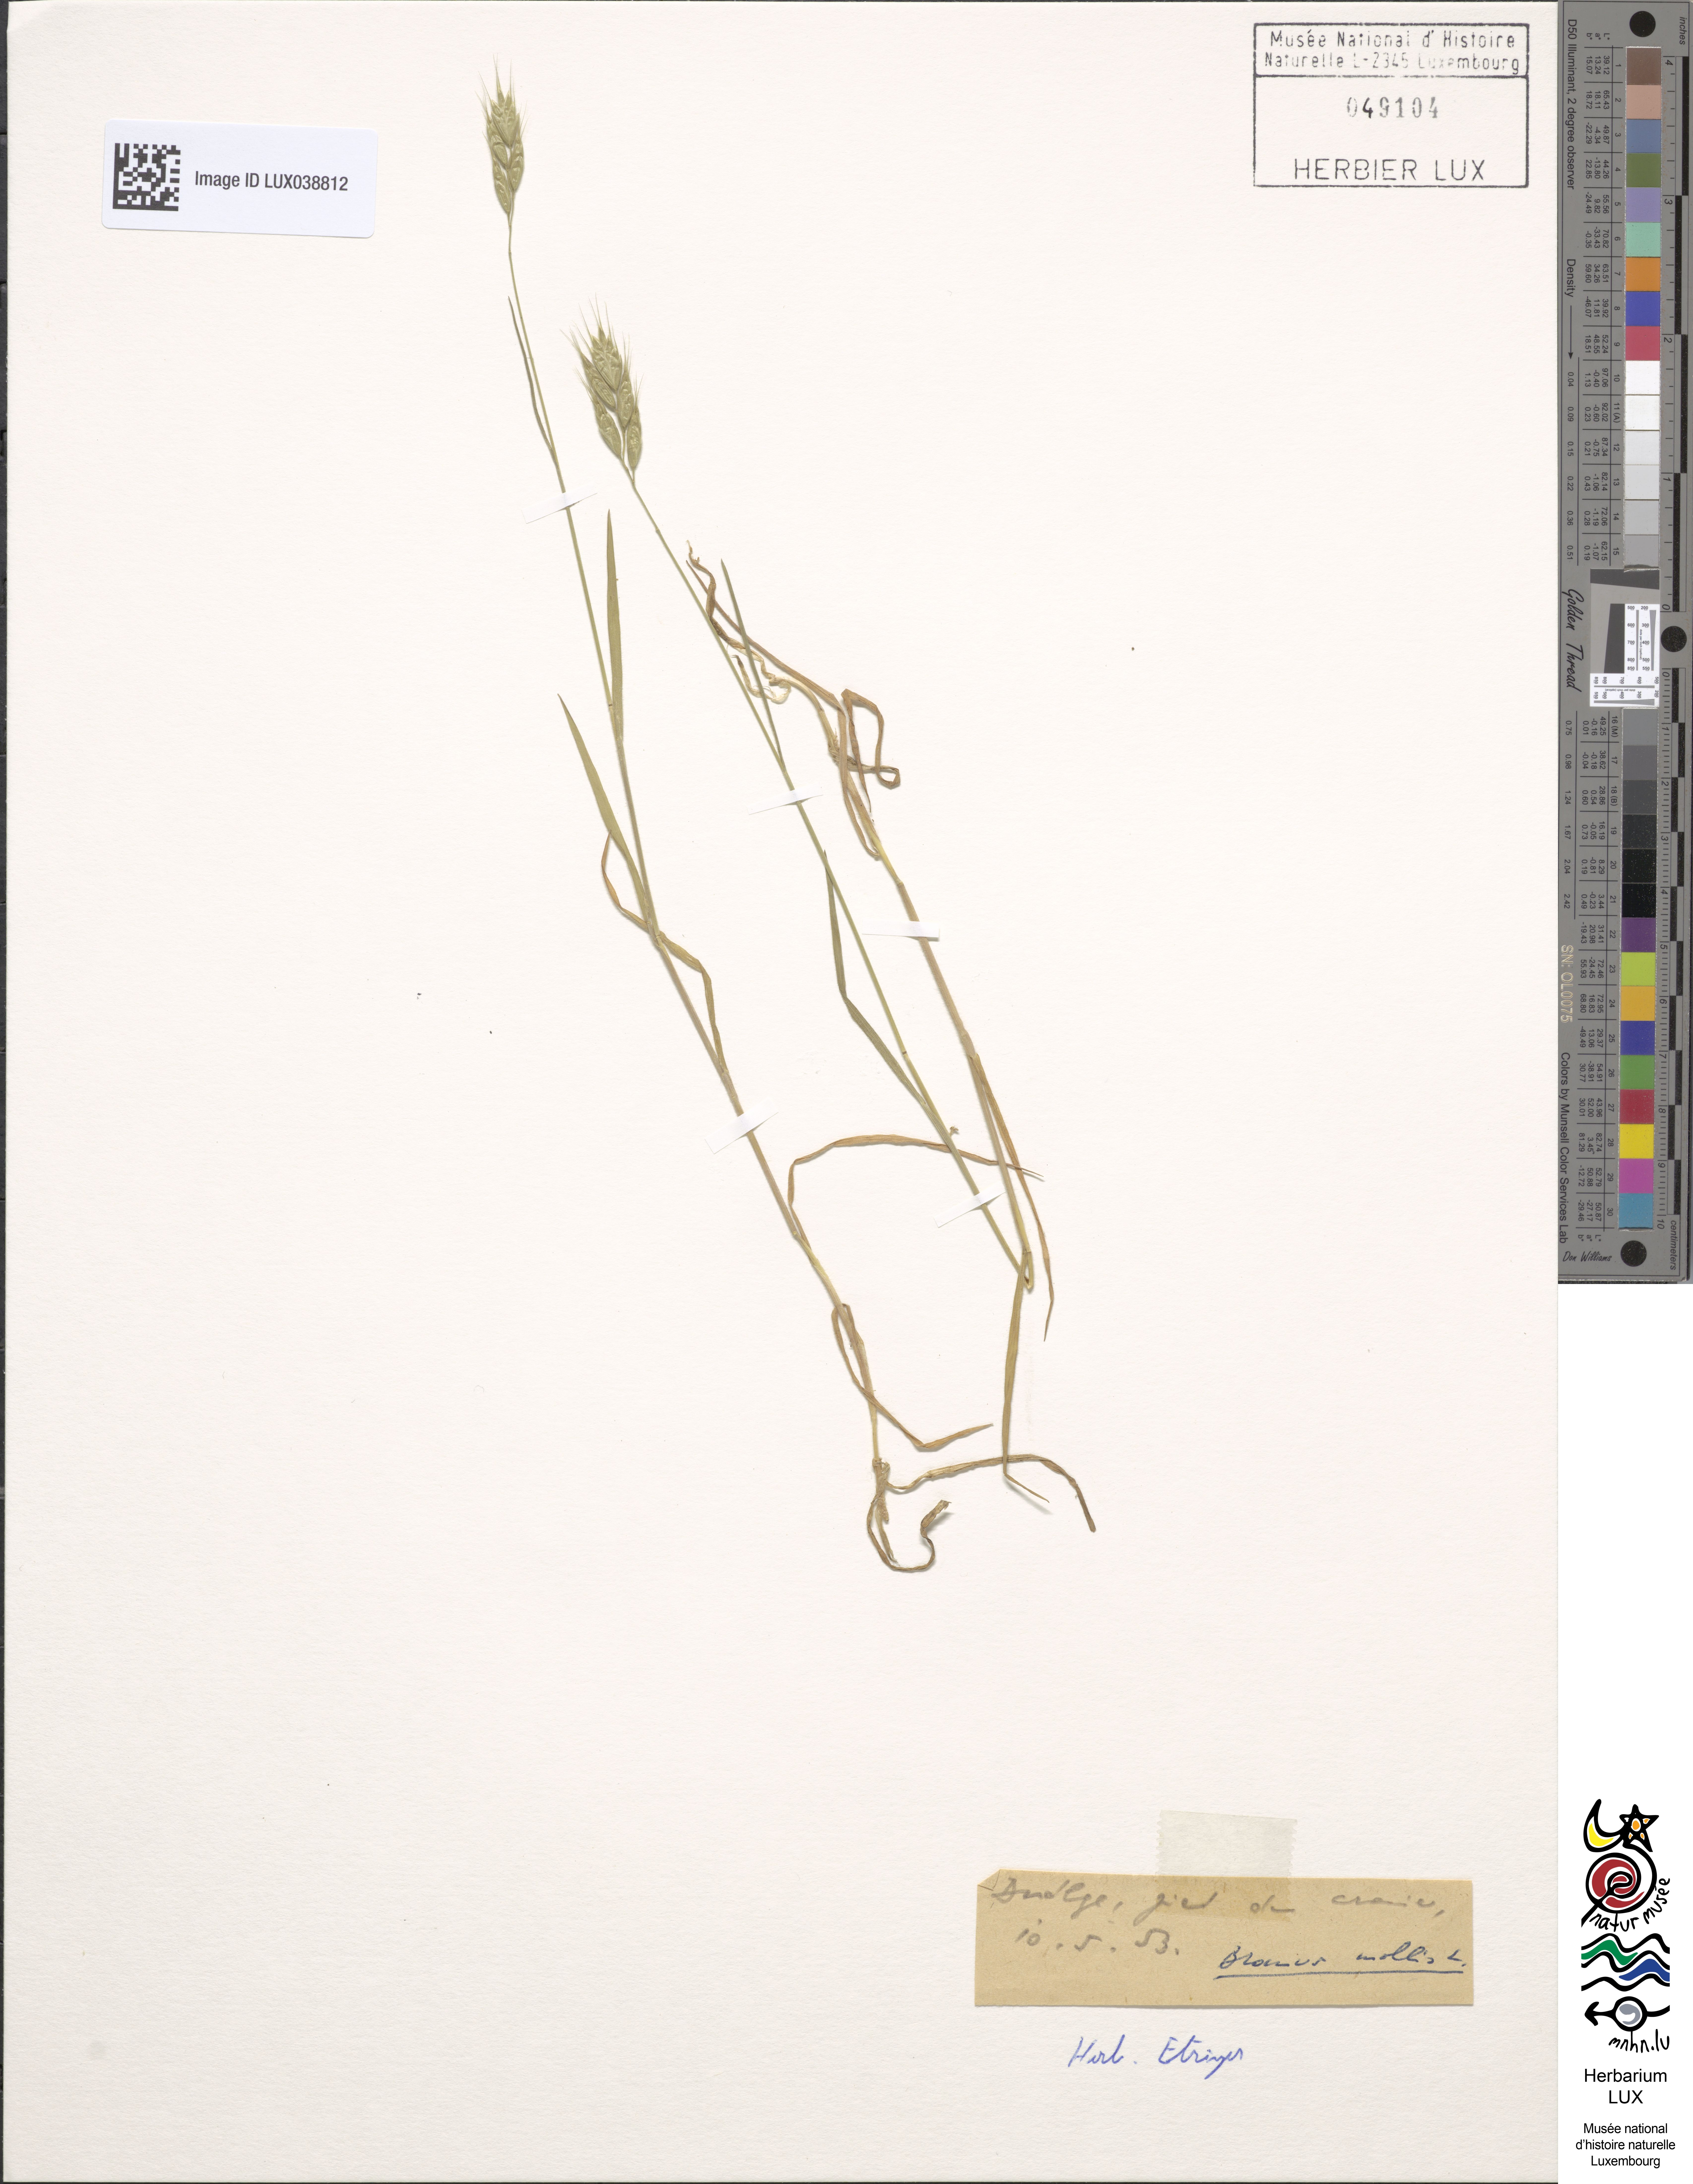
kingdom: Plantae
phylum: Tracheophyta
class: Liliopsida
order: Poales
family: Poaceae
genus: Bromus
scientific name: Bromus hordeaceus
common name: Soft brome
